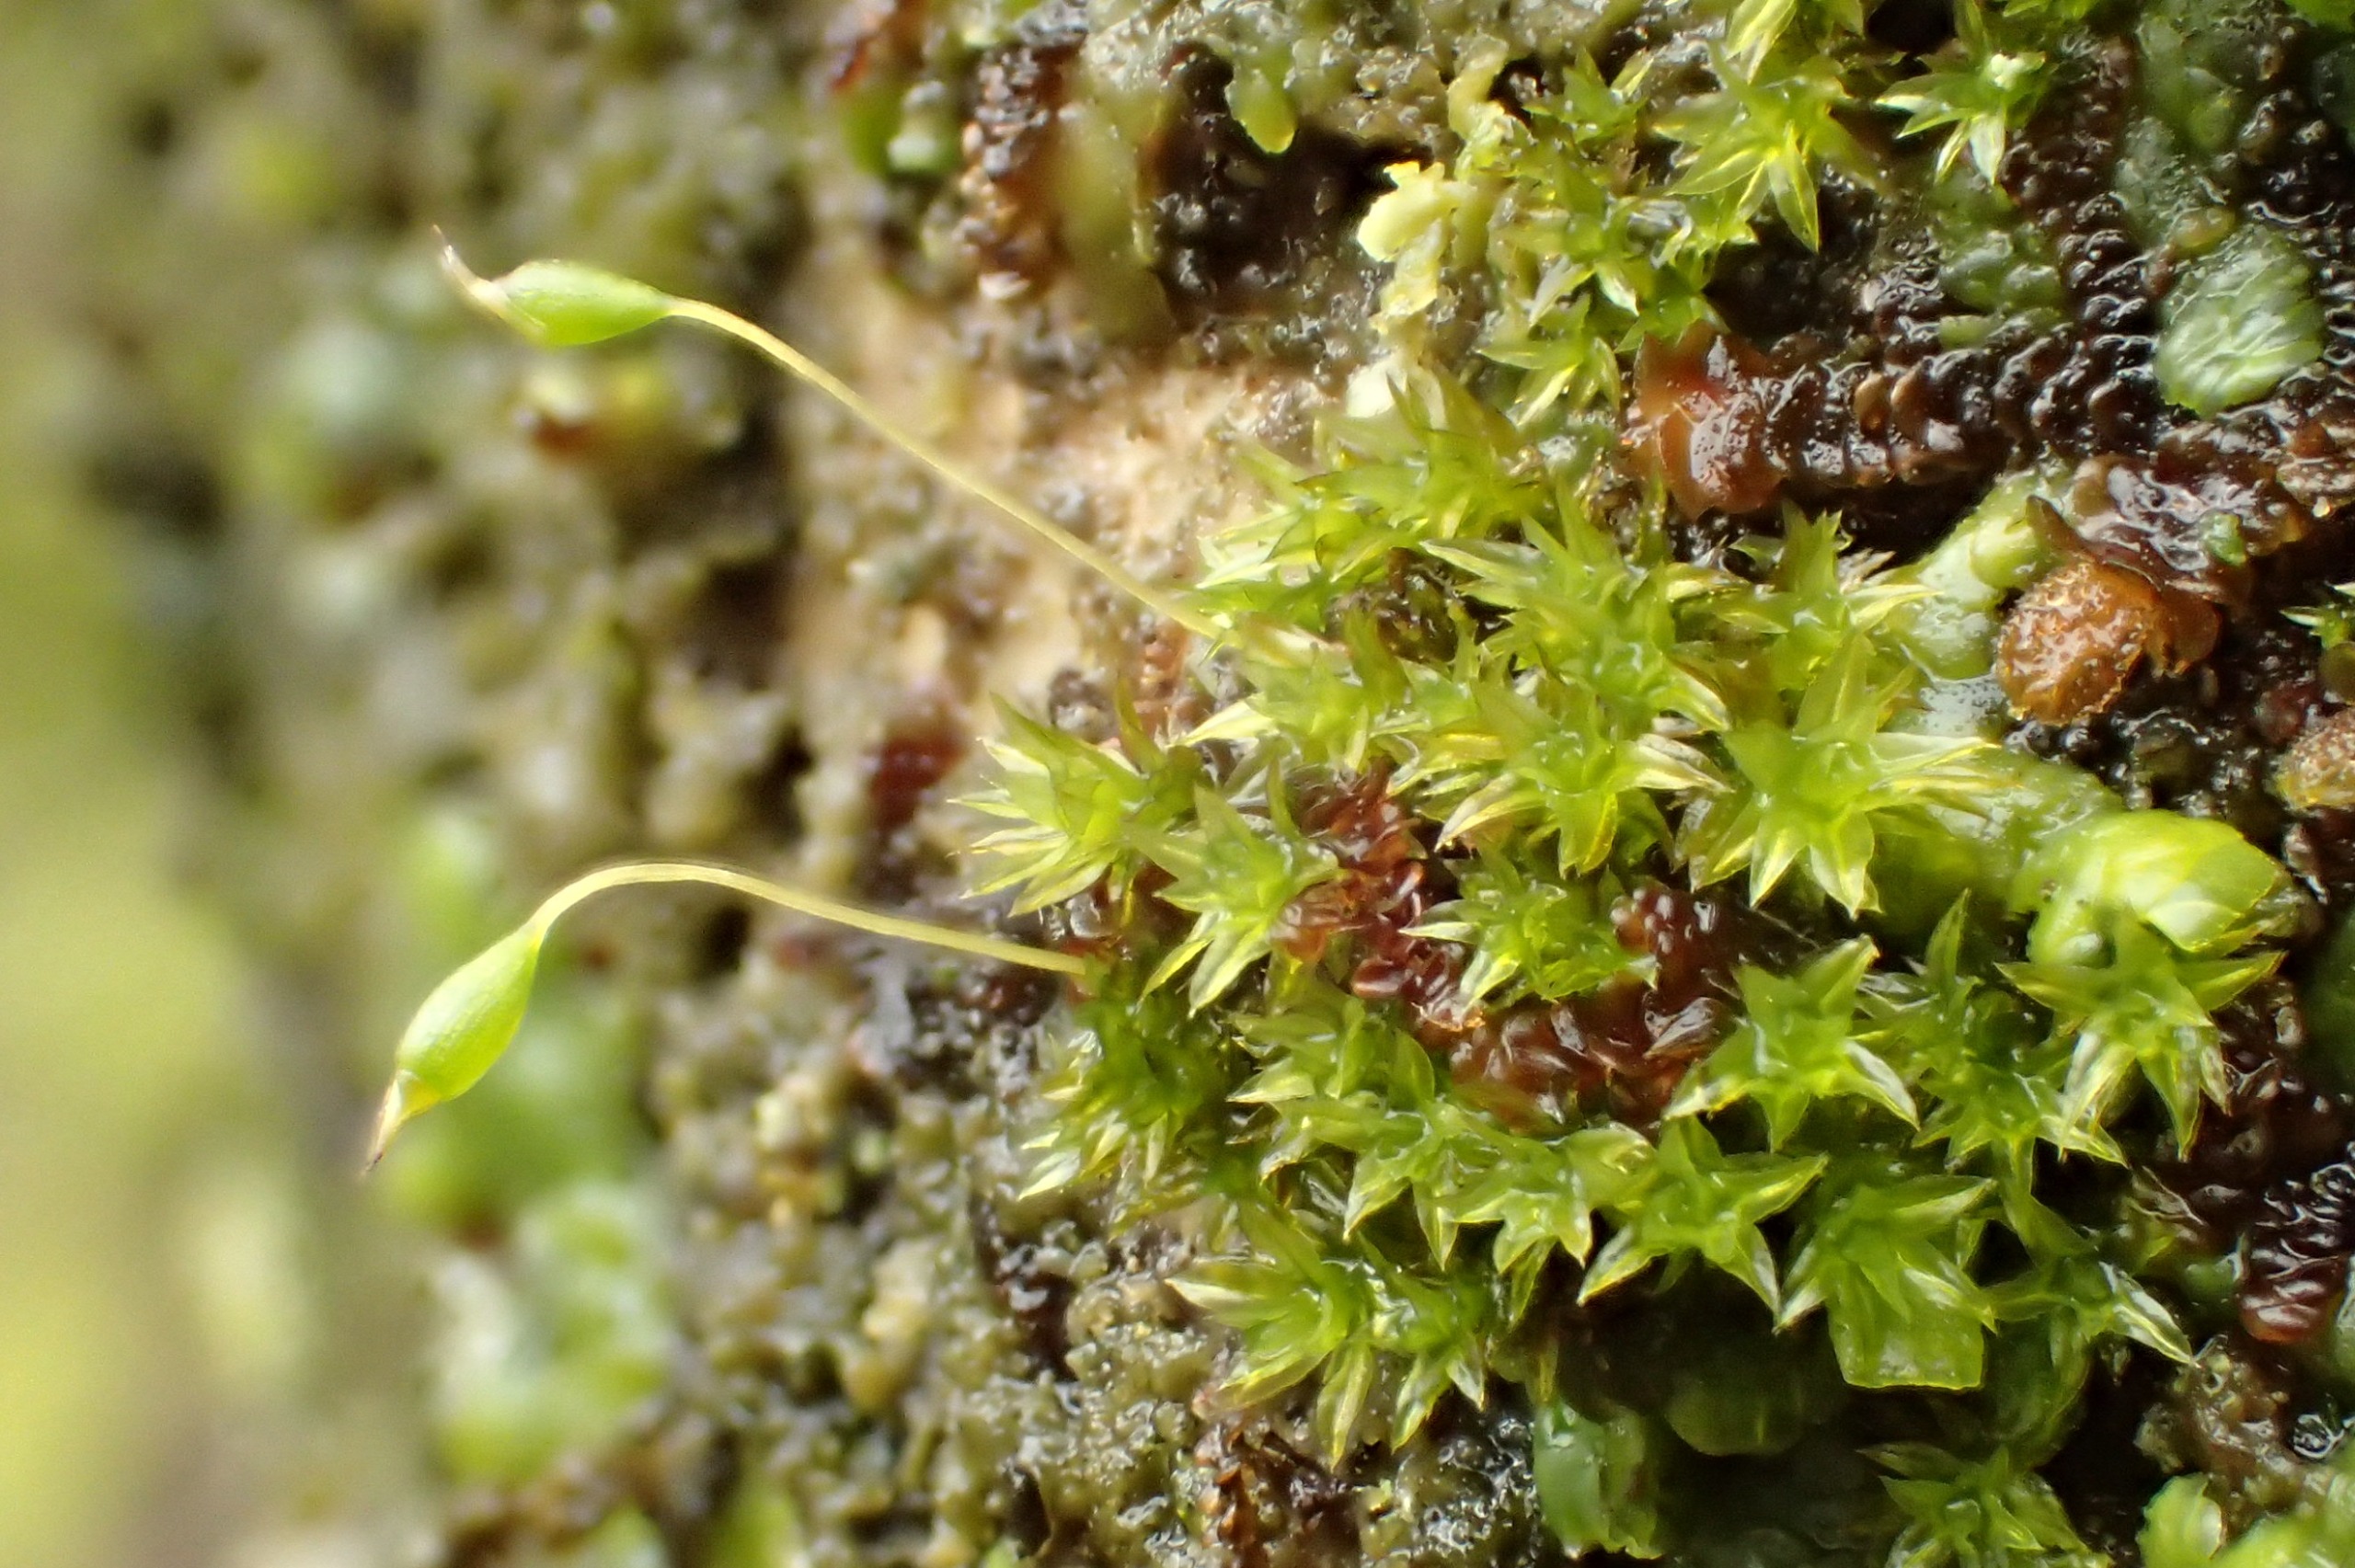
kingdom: Plantae
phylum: Bryophyta
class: Bryopsida
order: Orthotrichales
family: Orthotrichaceae
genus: Zygodon
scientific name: Zygodon conoideus
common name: Tand-køllemos
